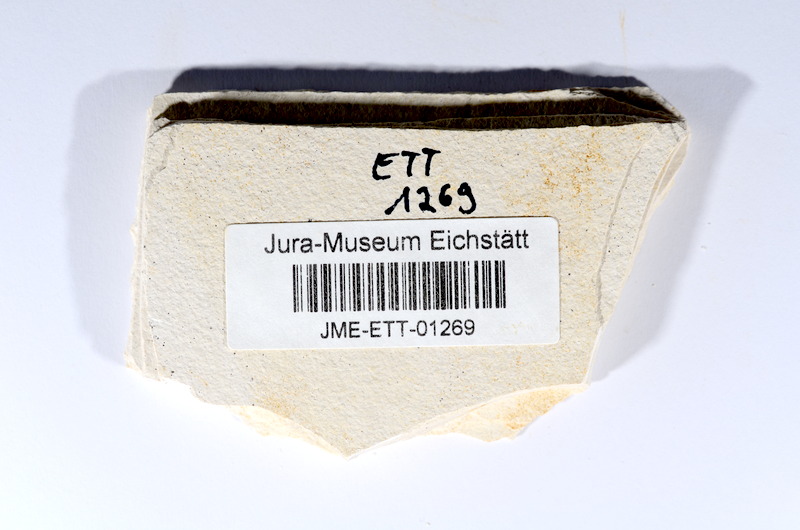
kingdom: Animalia
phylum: Chordata
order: Salmoniformes
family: Orthogonikleithridae
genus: Orthogonikleithrus
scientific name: Orthogonikleithrus hoelli
